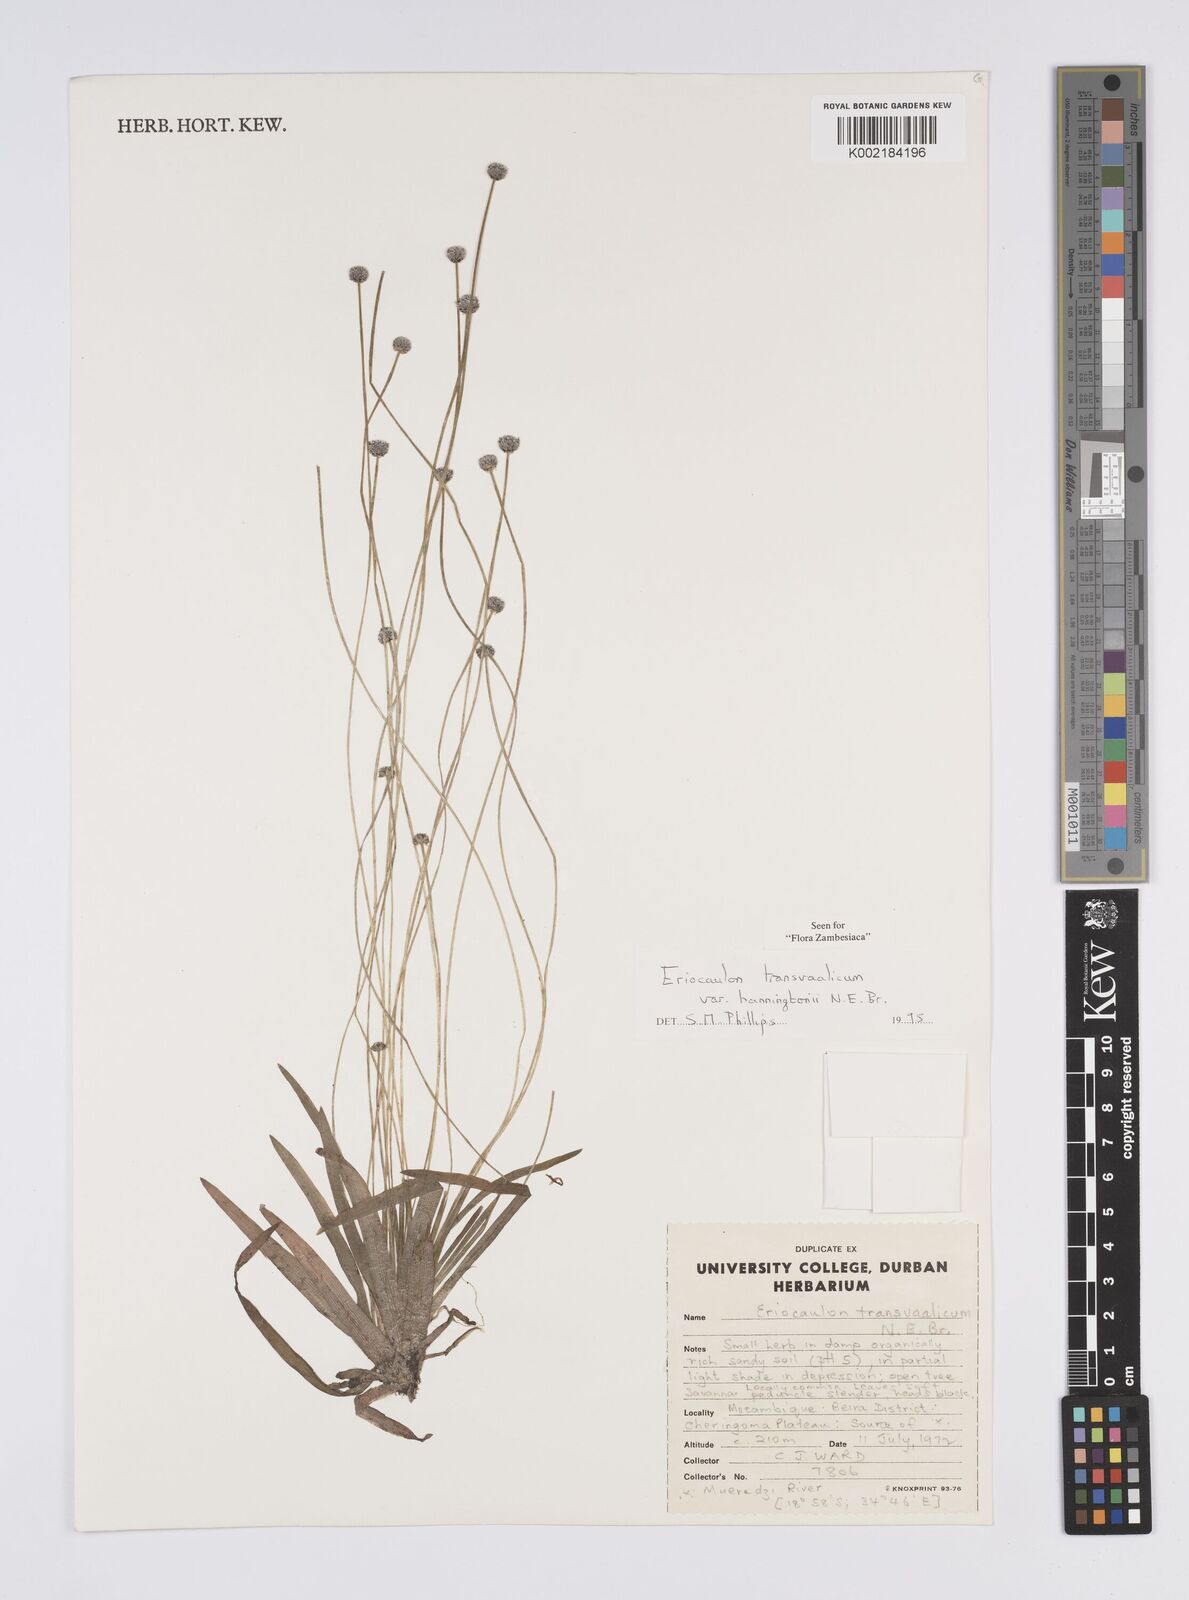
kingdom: Plantae
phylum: Tracheophyta
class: Liliopsida
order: Poales
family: Eriocaulaceae
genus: Eriocaulon
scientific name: Eriocaulon transvaalicum
